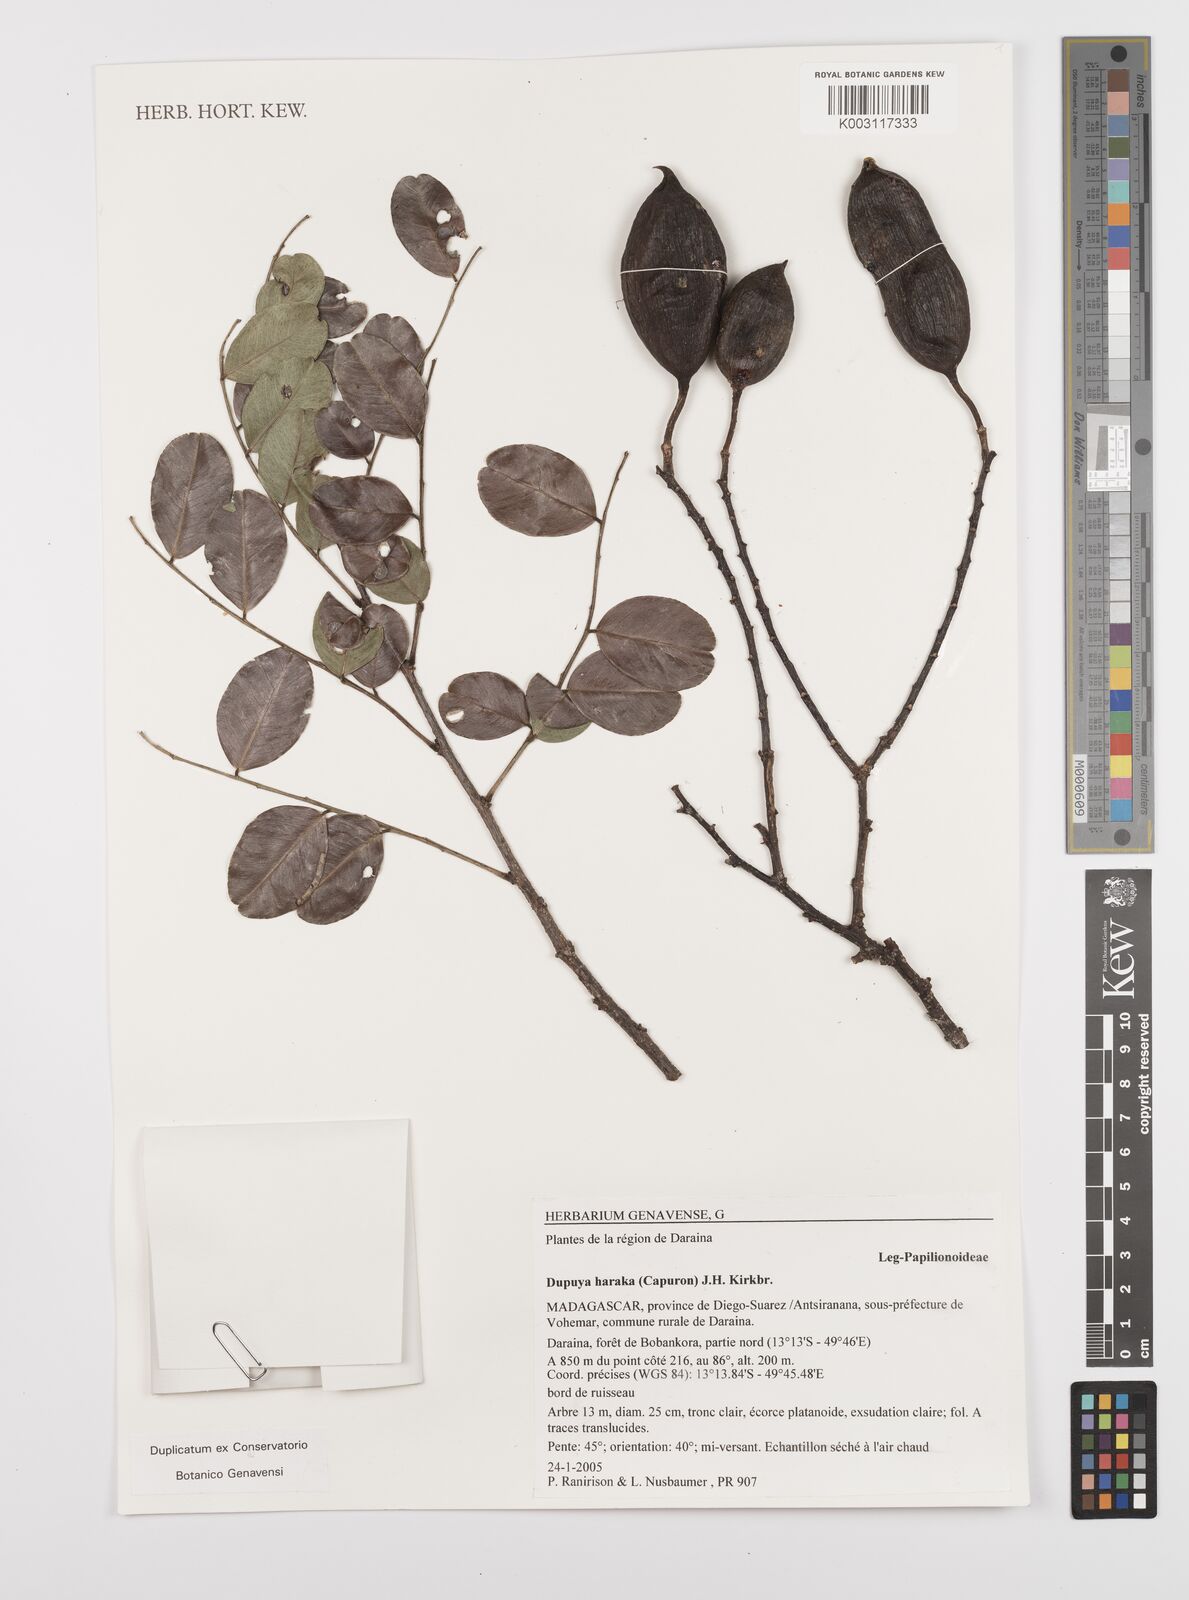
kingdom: Plantae
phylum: Tracheophyta
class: Magnoliopsida
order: Fabales
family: Fabaceae
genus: Cordyla
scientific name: Cordyla haraka
